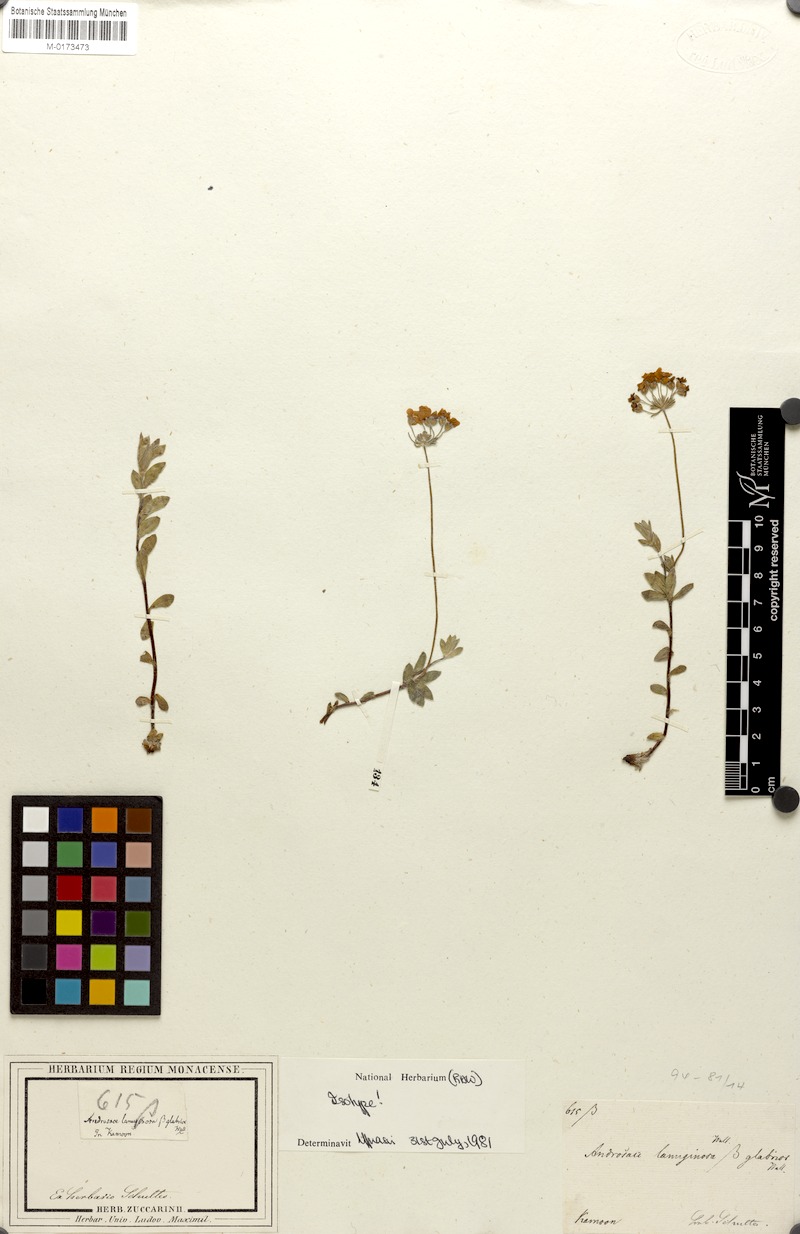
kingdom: Plantae
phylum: Tracheophyta
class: Magnoliopsida
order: Ericales
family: Primulaceae
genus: Androsace
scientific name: Androsace lanuginosa
